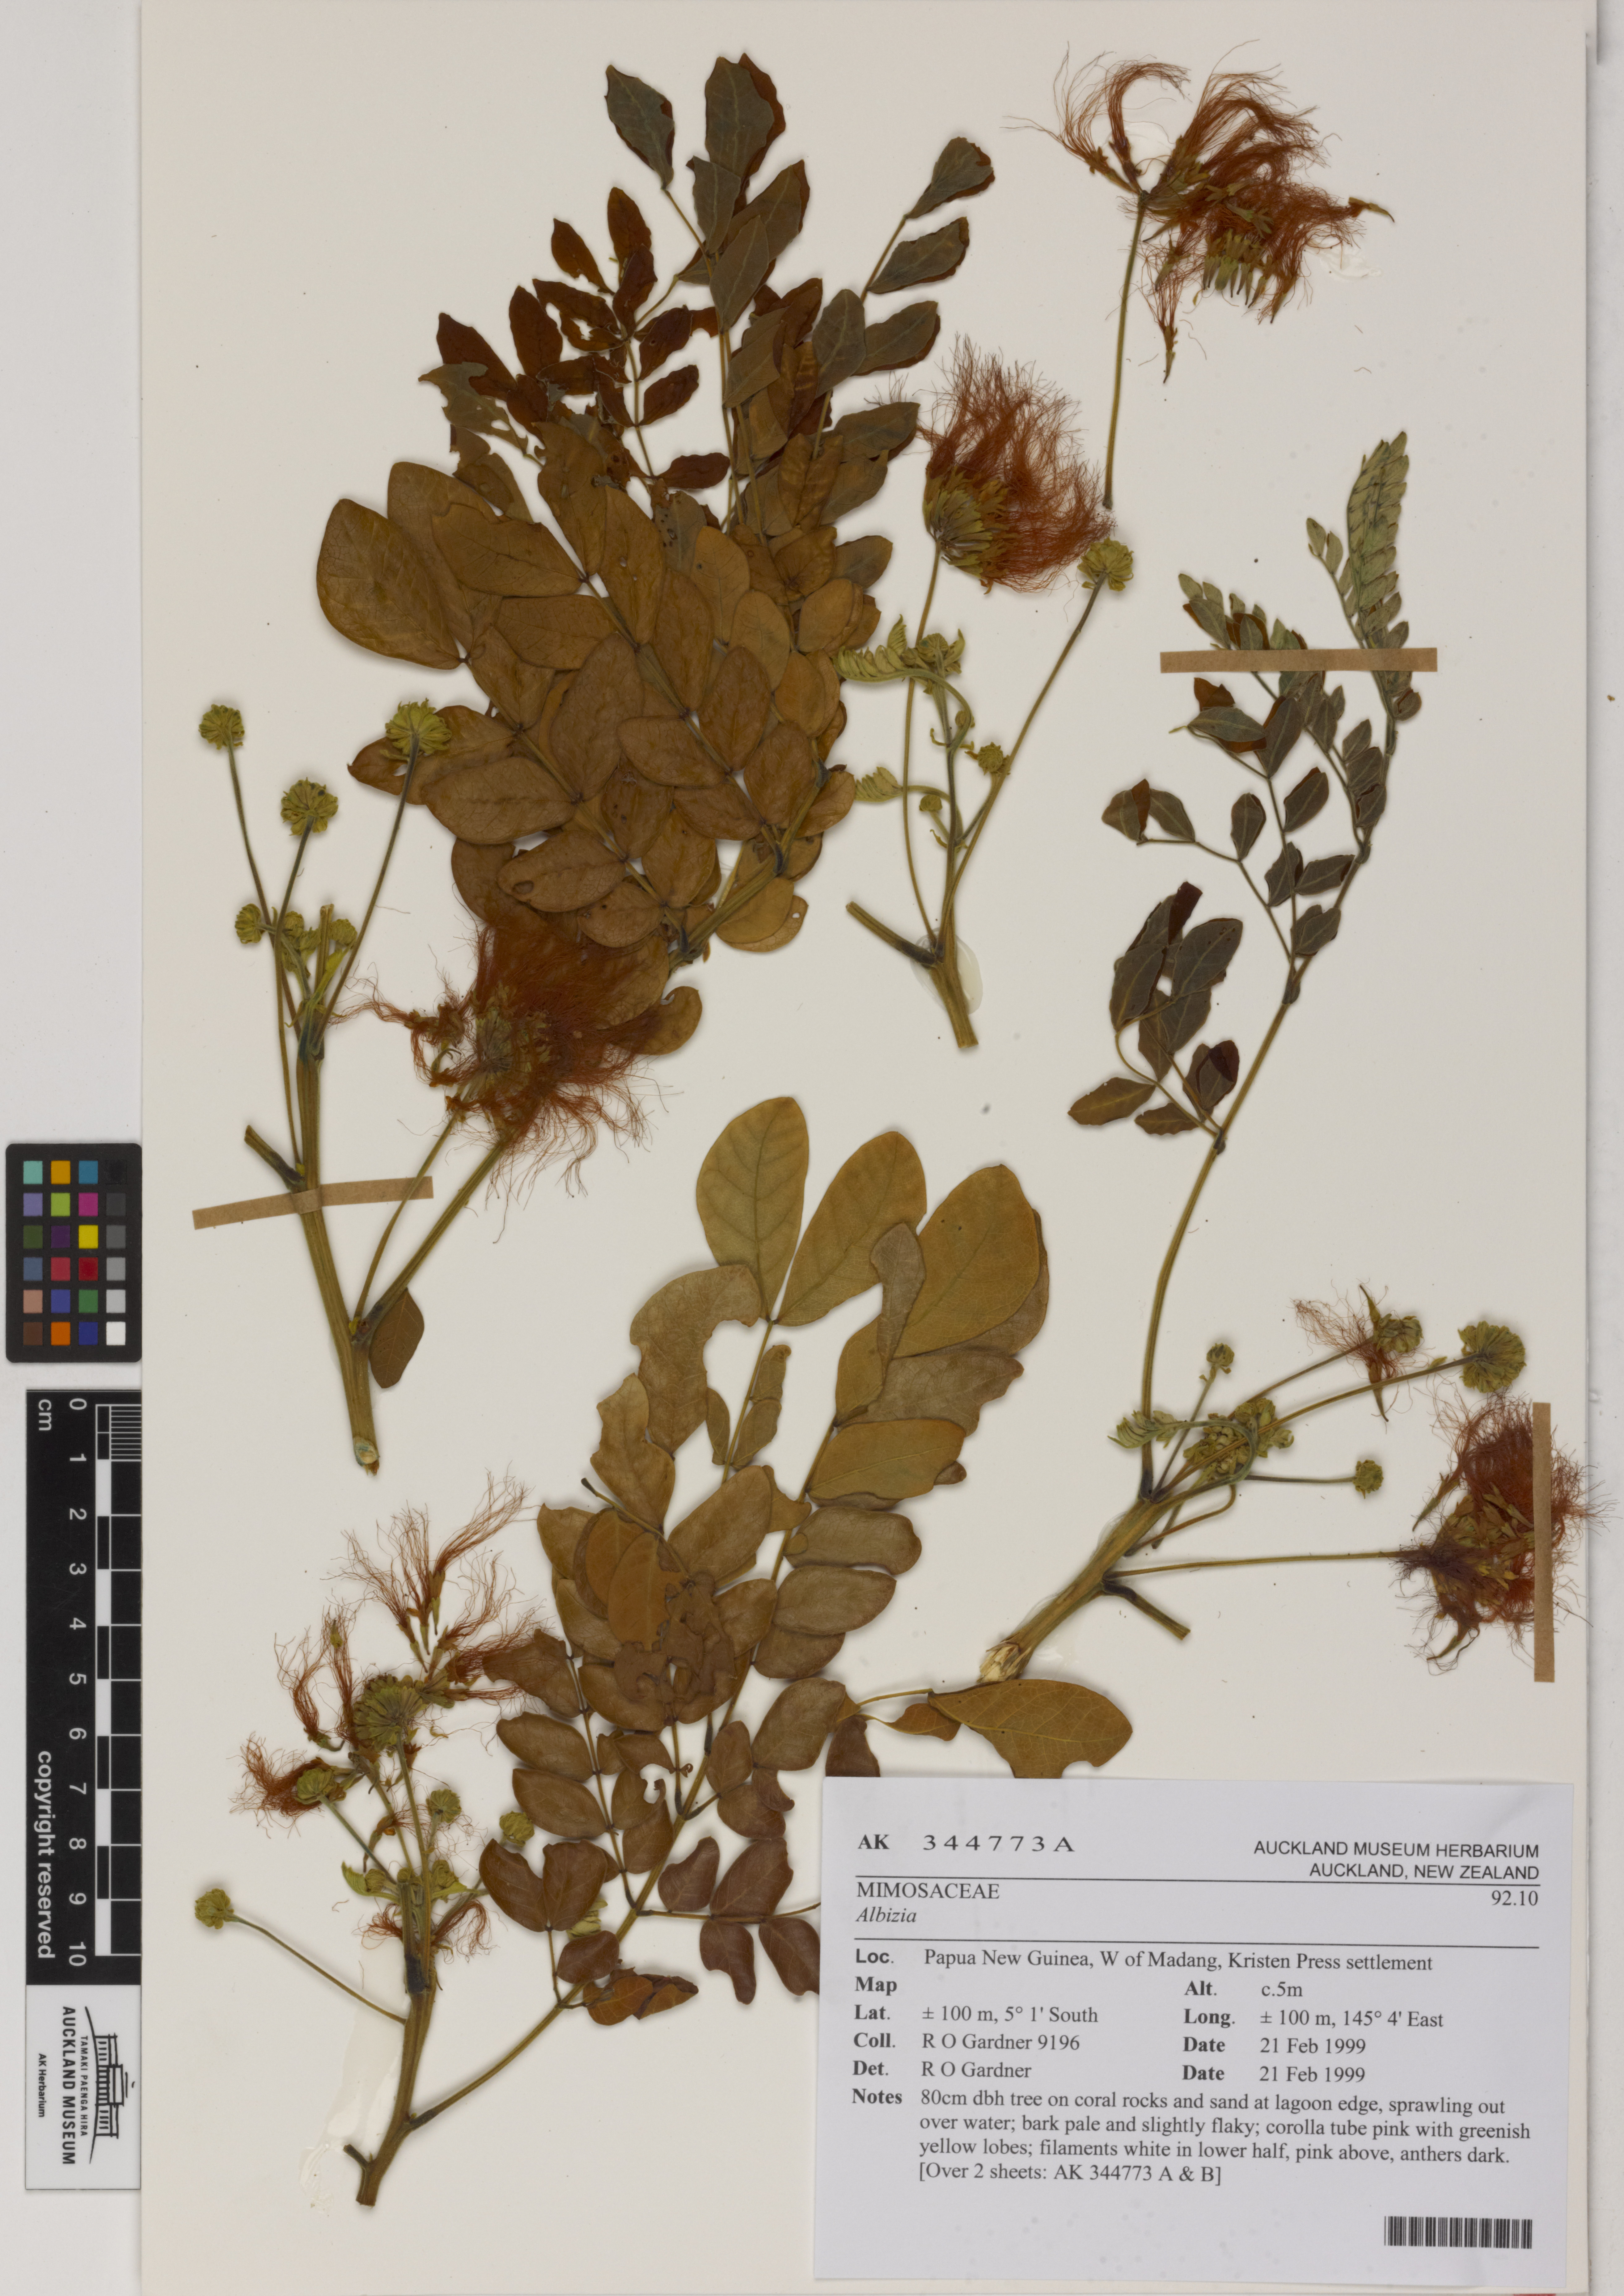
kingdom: Plantae
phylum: Tracheophyta
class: Magnoliopsida
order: Fabales
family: Fabaceae
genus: Albizia
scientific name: Albizia
